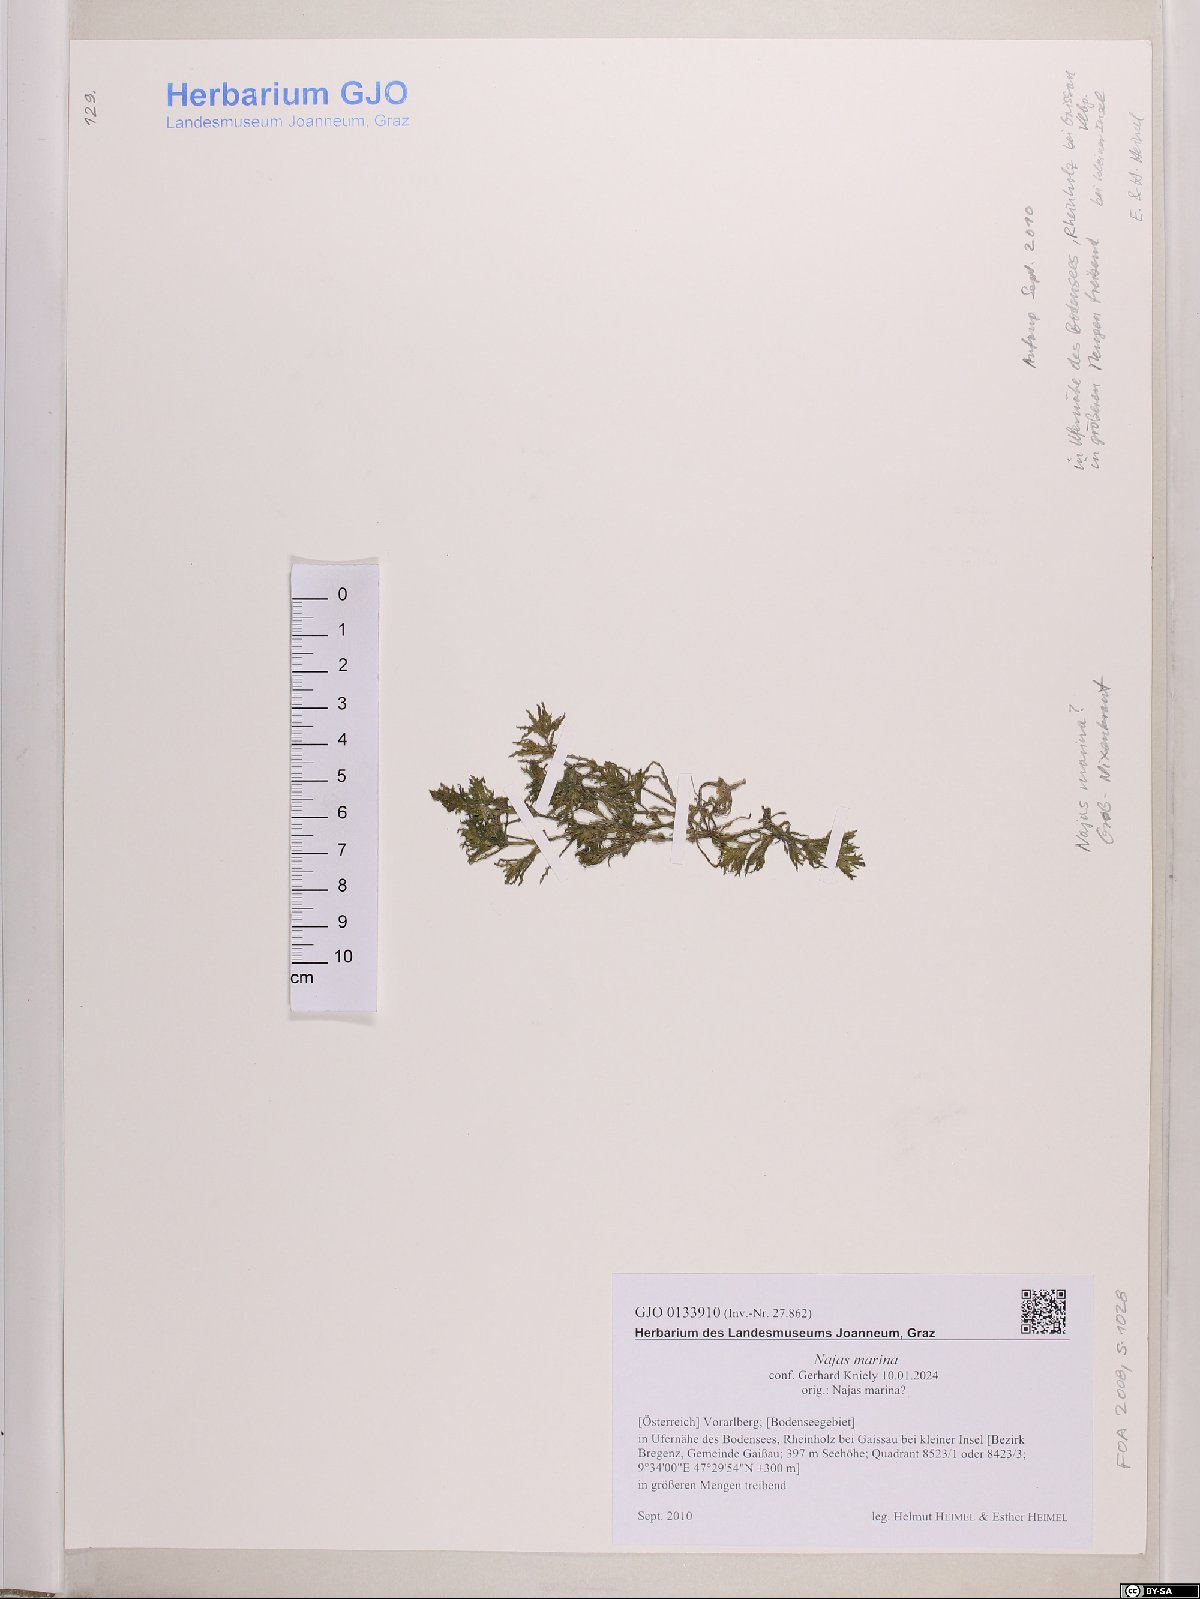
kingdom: Plantae
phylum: Tracheophyta
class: Liliopsida
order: Alismatales
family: Hydrocharitaceae
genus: Najas
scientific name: Najas marina
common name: Holly-leaved naiad
